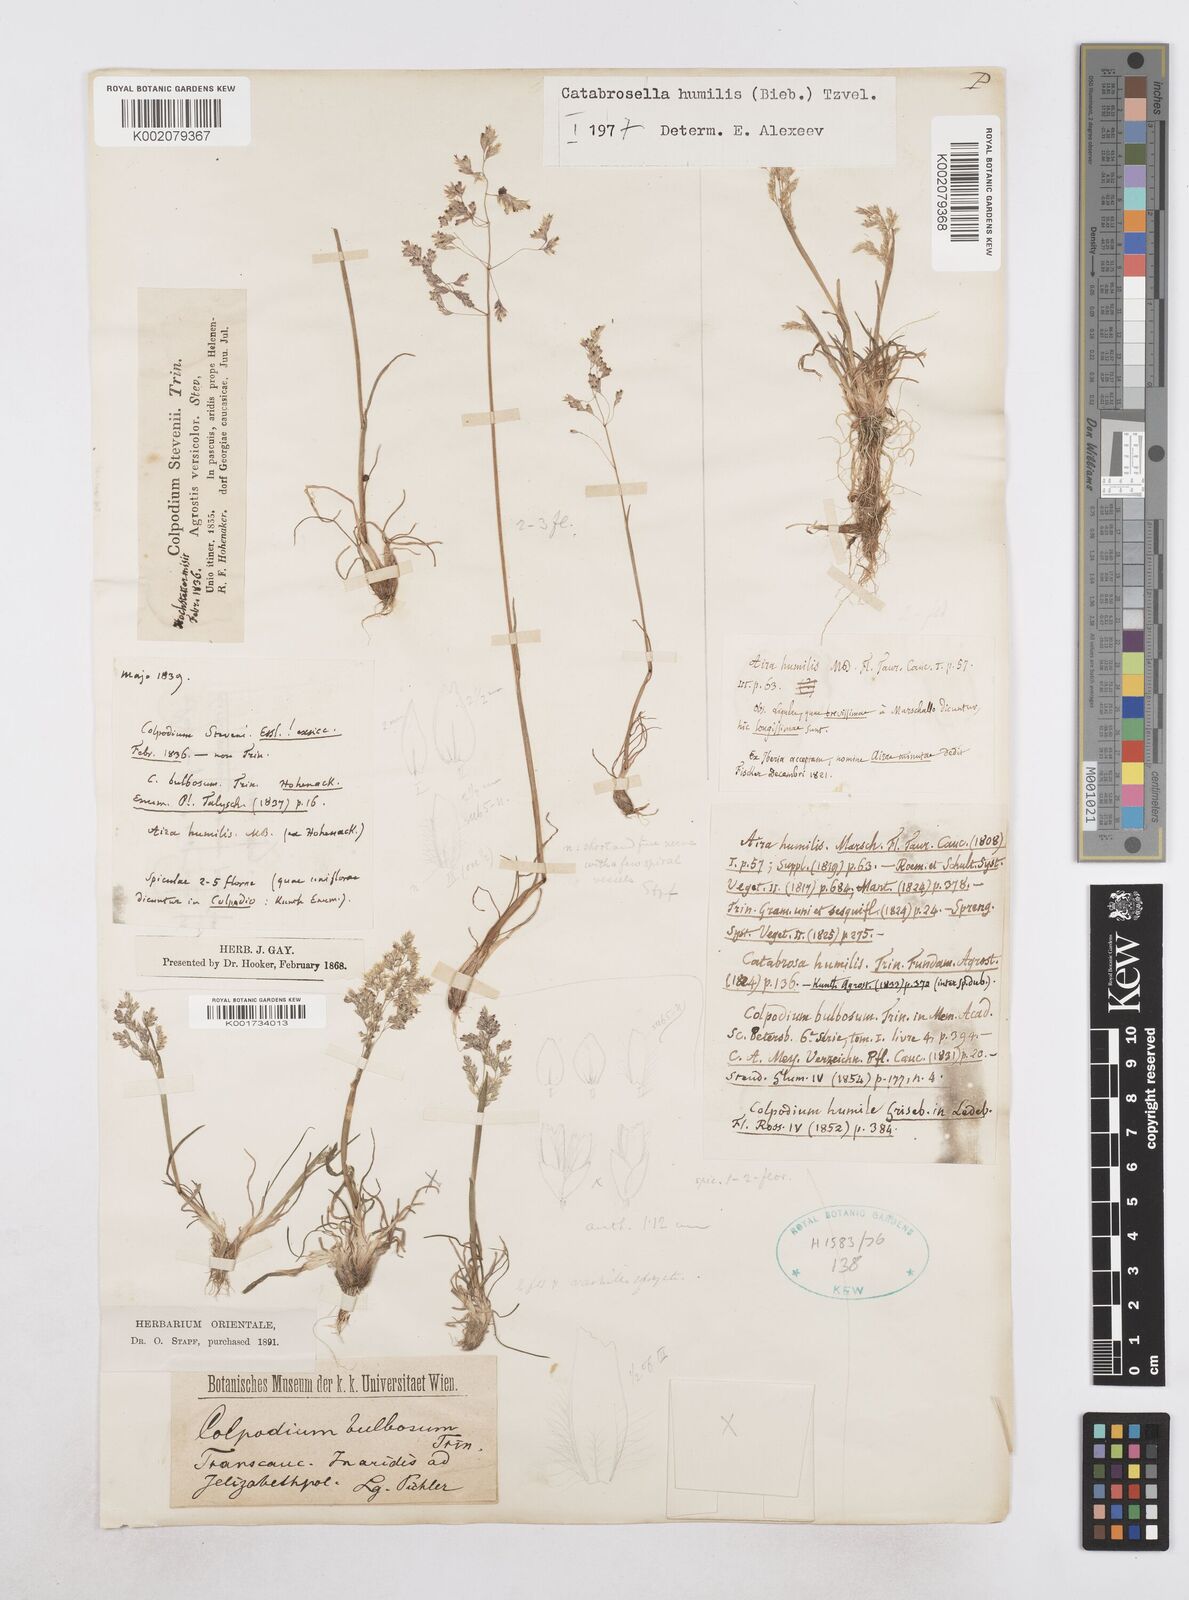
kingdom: Plantae
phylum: Tracheophyta
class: Liliopsida
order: Poales
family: Poaceae
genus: Catabrosella
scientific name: Catabrosella humilis
